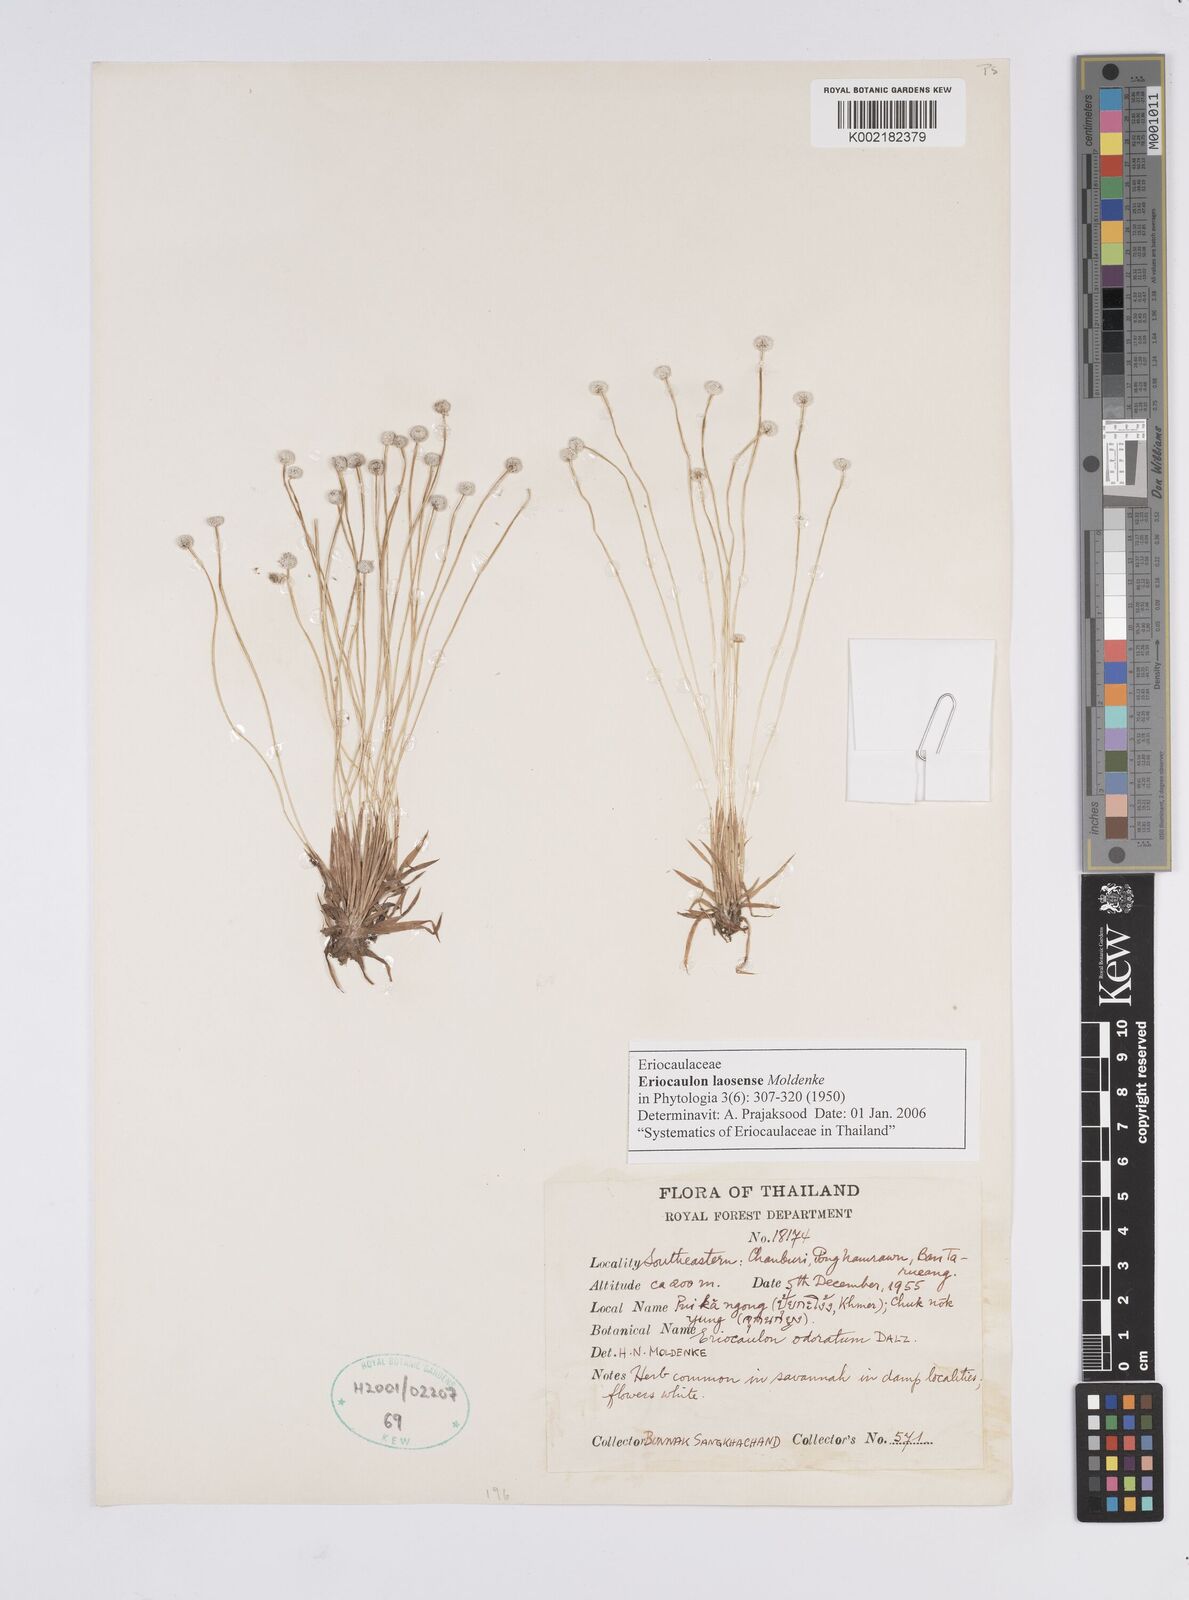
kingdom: Plantae
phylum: Tracheophyta
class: Liliopsida
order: Poales
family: Eriocaulaceae
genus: Eriocaulon
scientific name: Eriocaulon laosense
